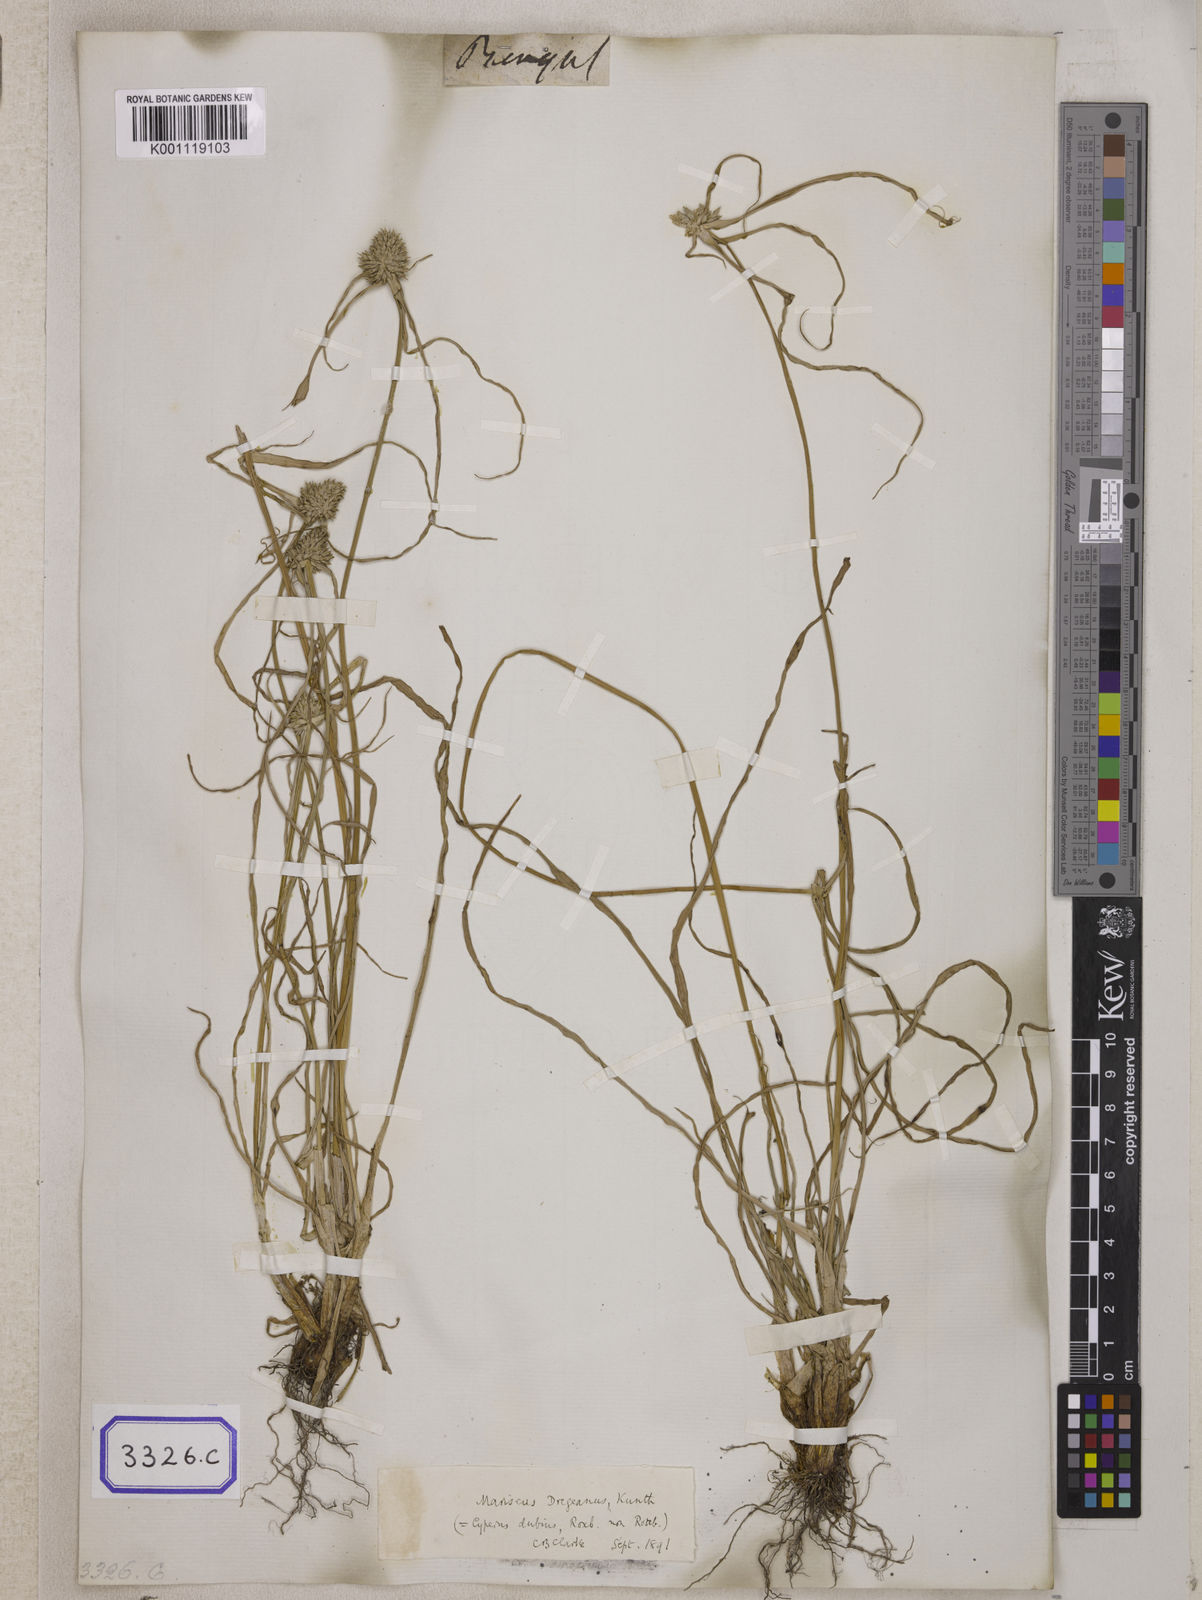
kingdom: Plantae
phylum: Tracheophyta
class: Liliopsida
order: Poales
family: Cyperaceae
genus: Cyperus
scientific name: Cyperus
